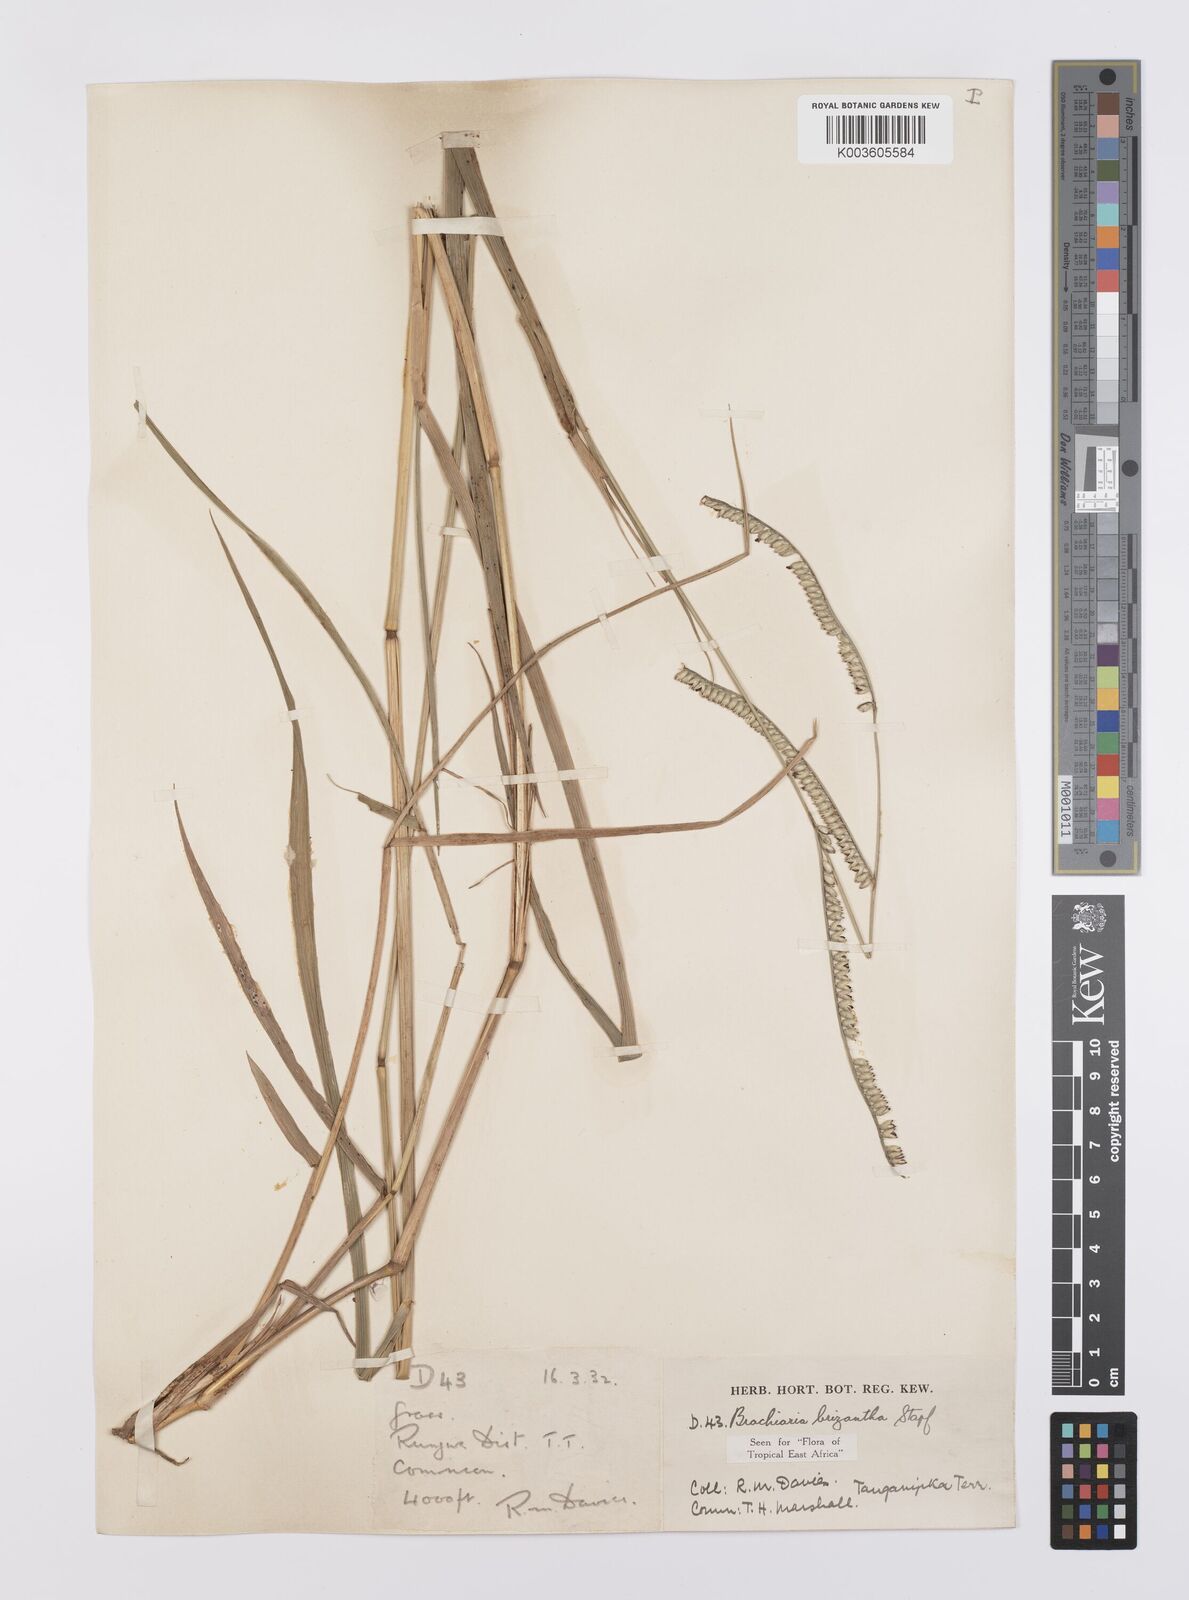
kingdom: Plantae
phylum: Tracheophyta
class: Liliopsida
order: Poales
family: Poaceae
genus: Urochloa
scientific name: Urochloa brizantha
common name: Palisade signalgrass
